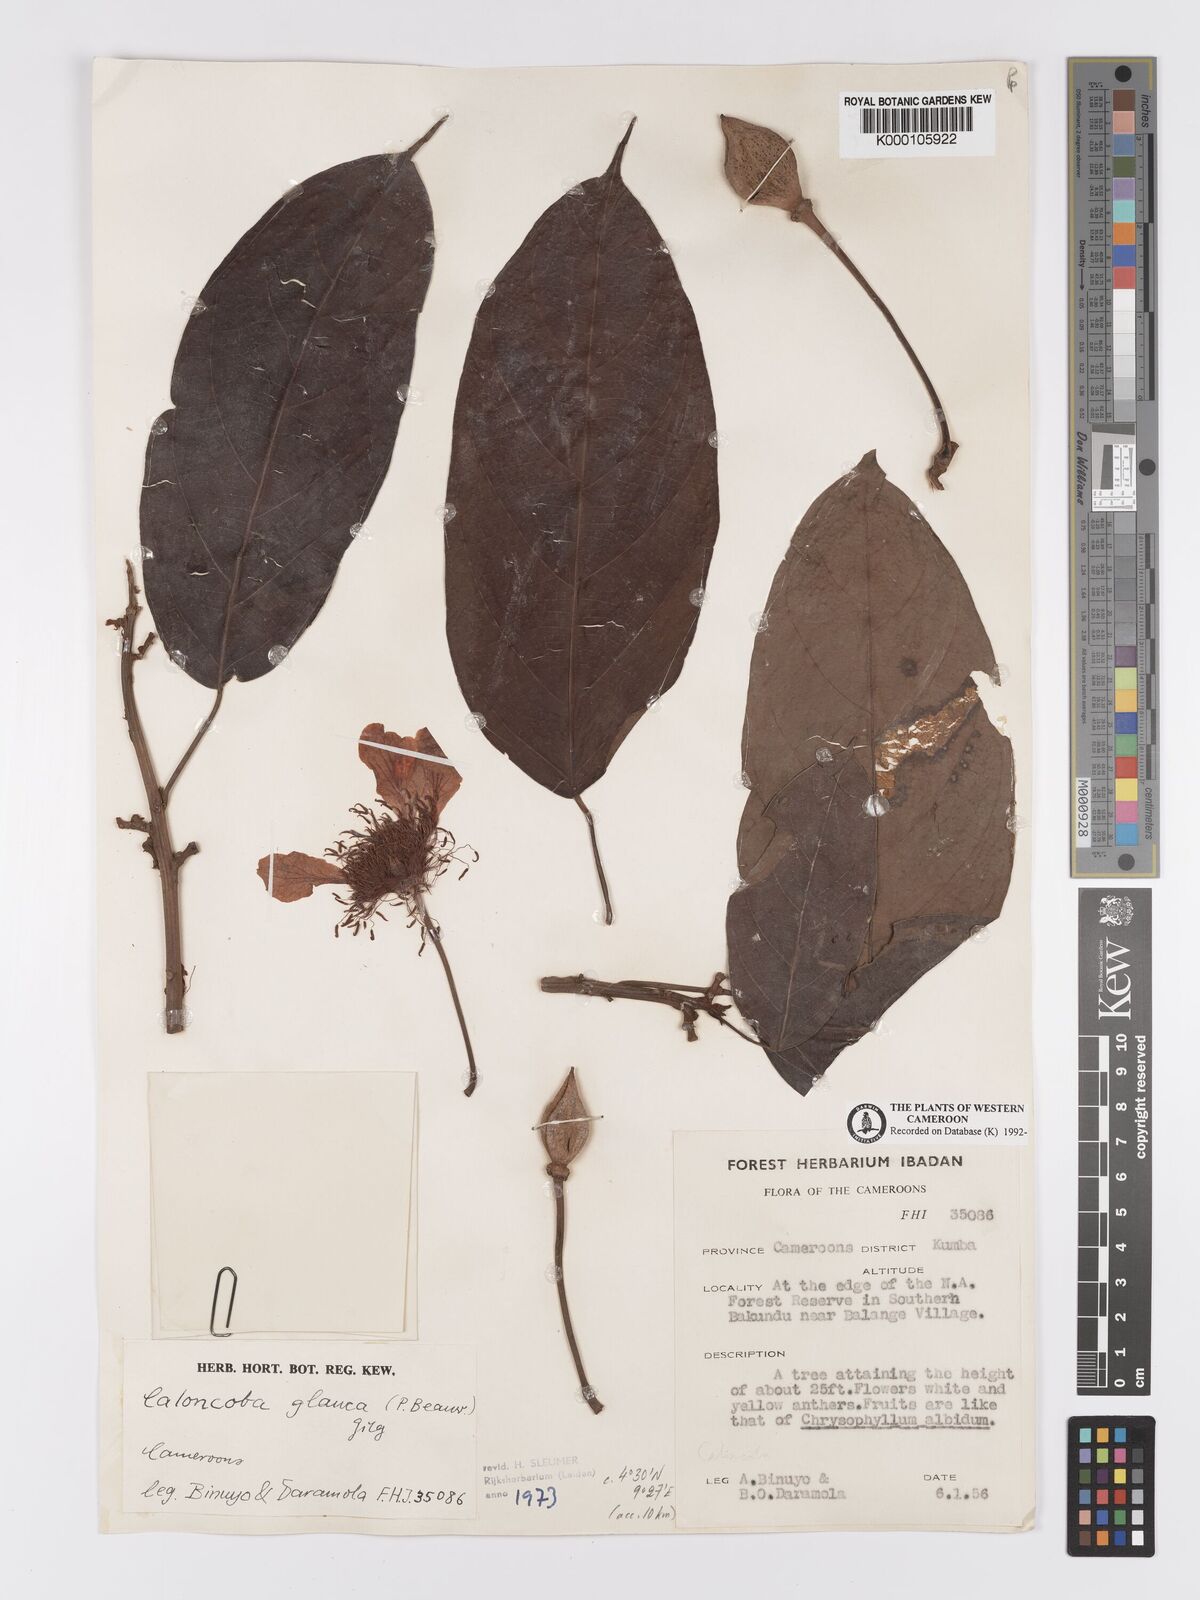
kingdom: Plantae
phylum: Tracheophyta
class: Magnoliopsida
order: Malpighiales
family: Achariaceae
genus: Caloncoba
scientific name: Caloncoba glauca
